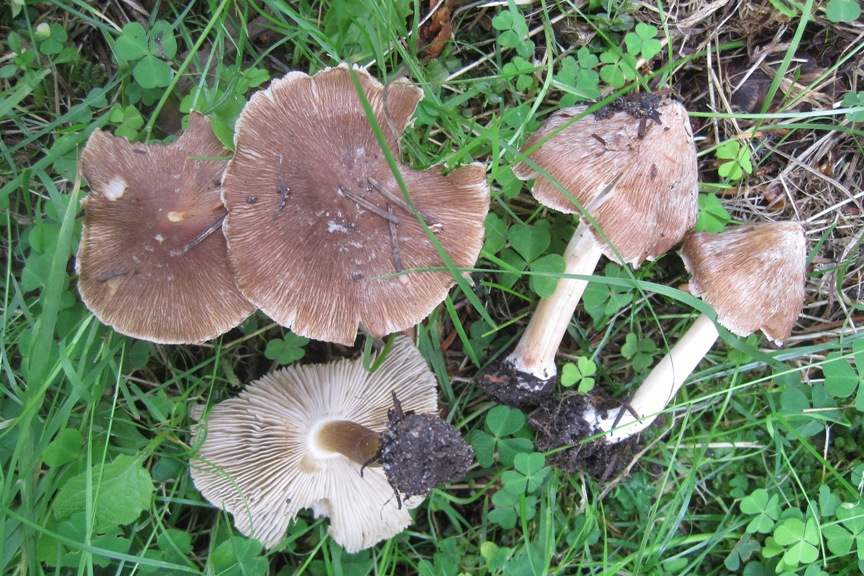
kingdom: Fungi
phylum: Basidiomycota
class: Agaricomycetes
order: Agaricales
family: Inocybaceae
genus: Inosperma
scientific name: Inosperma
